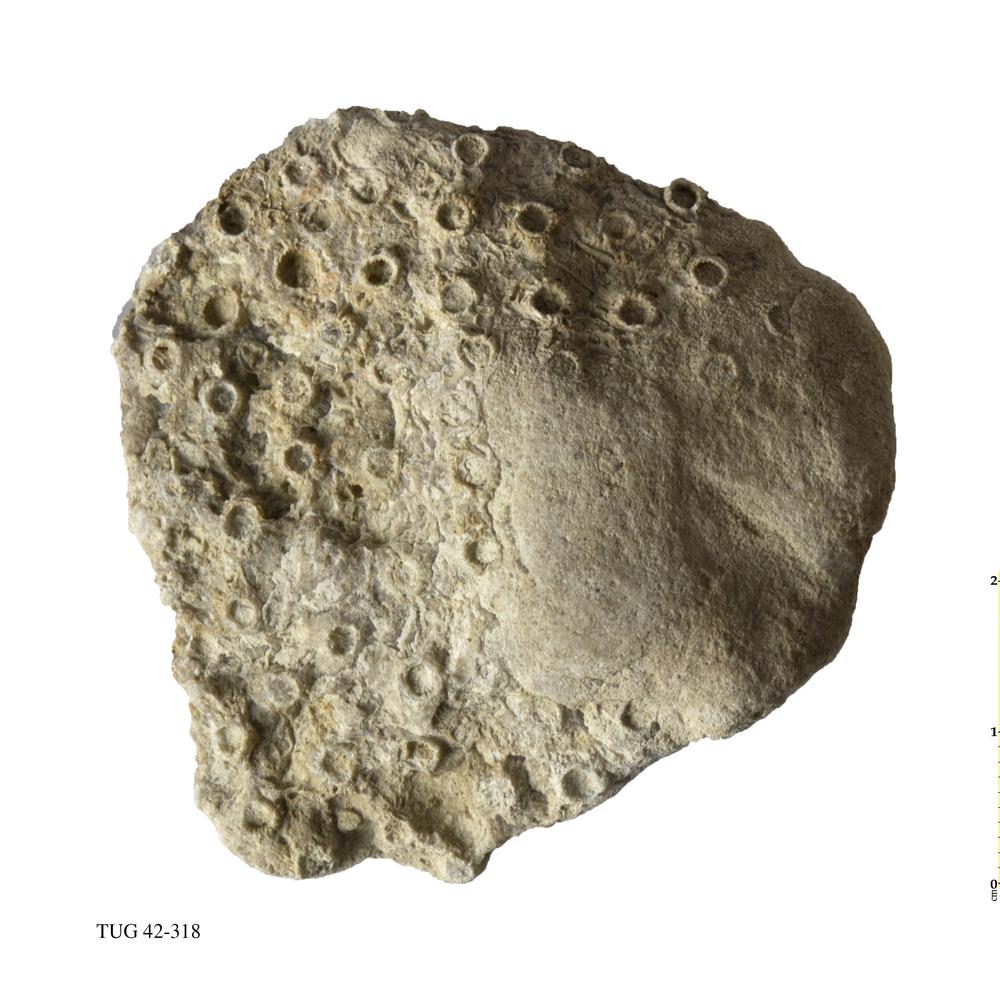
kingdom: Animalia
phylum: Cnidaria
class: Anthozoa
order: Heliolitina
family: Heliolitidae
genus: Heliolites
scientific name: Heliolites
